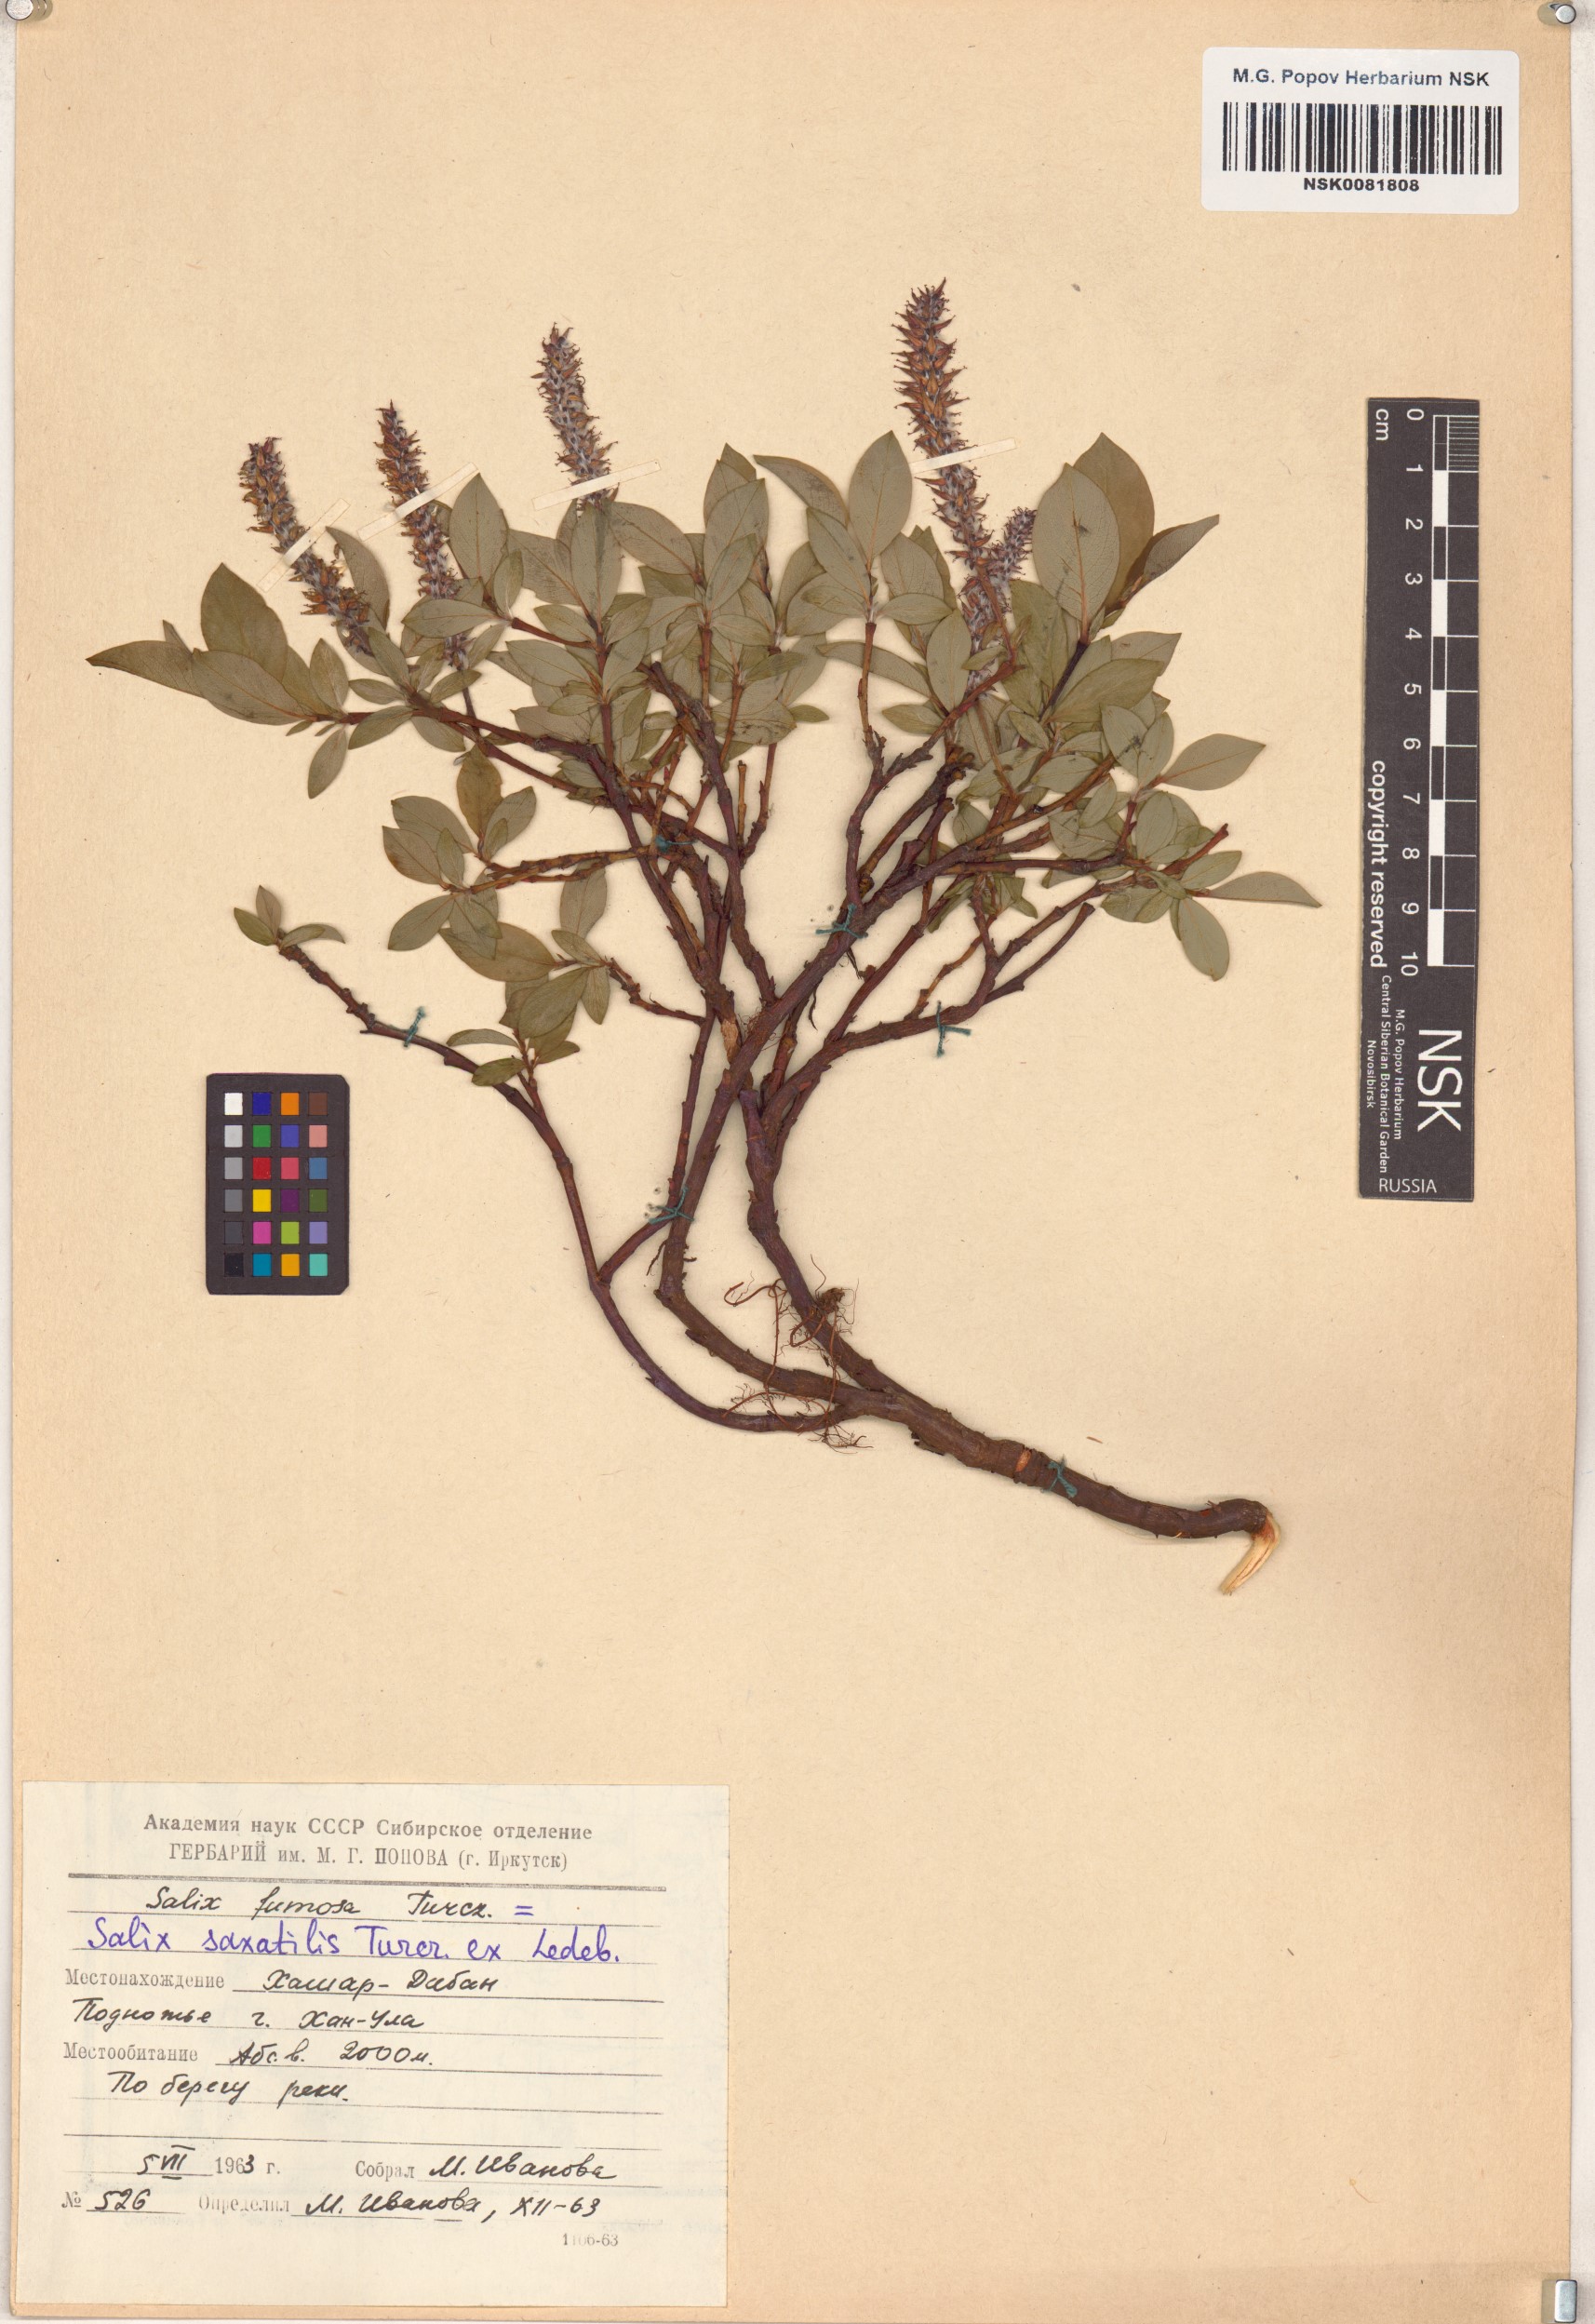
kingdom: Plantae
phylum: Tracheophyta
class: Magnoliopsida
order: Malpighiales
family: Salicaceae
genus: Salix
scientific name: Salix saxatilis
